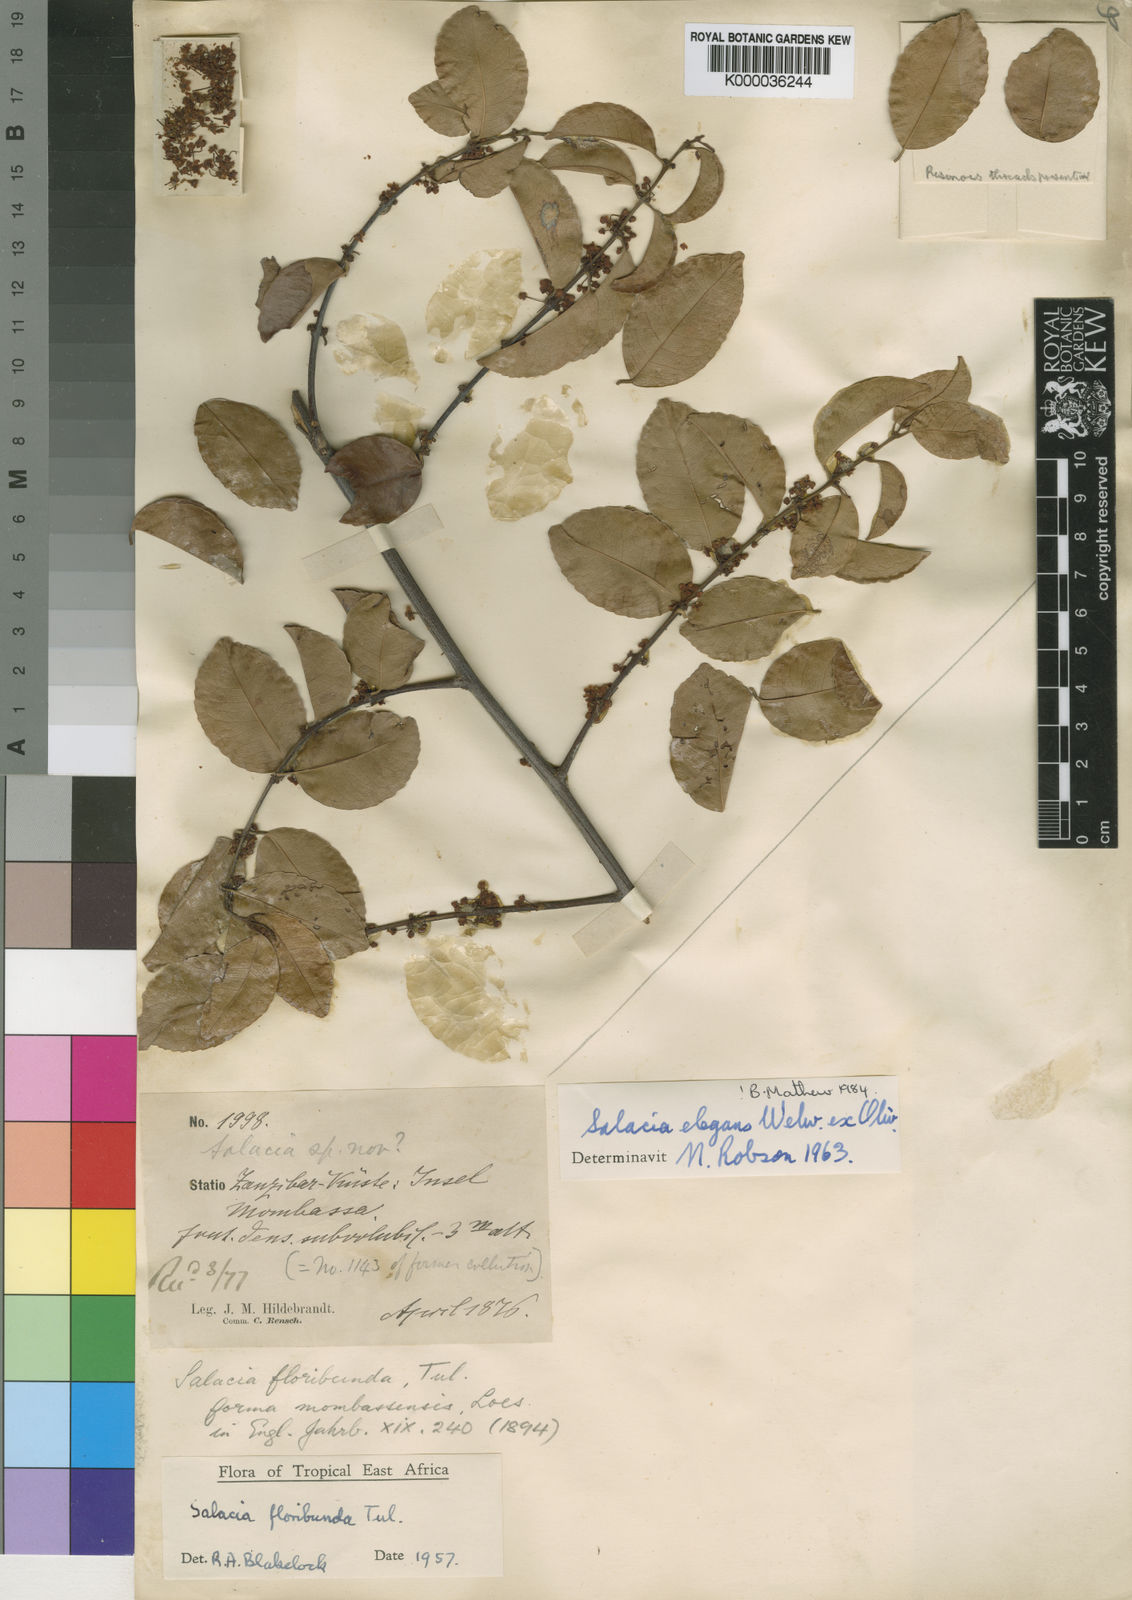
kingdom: Plantae
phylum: Tracheophyta
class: Magnoliopsida
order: Celastrales
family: Celastraceae
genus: Salacia
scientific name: Salacia elegans
